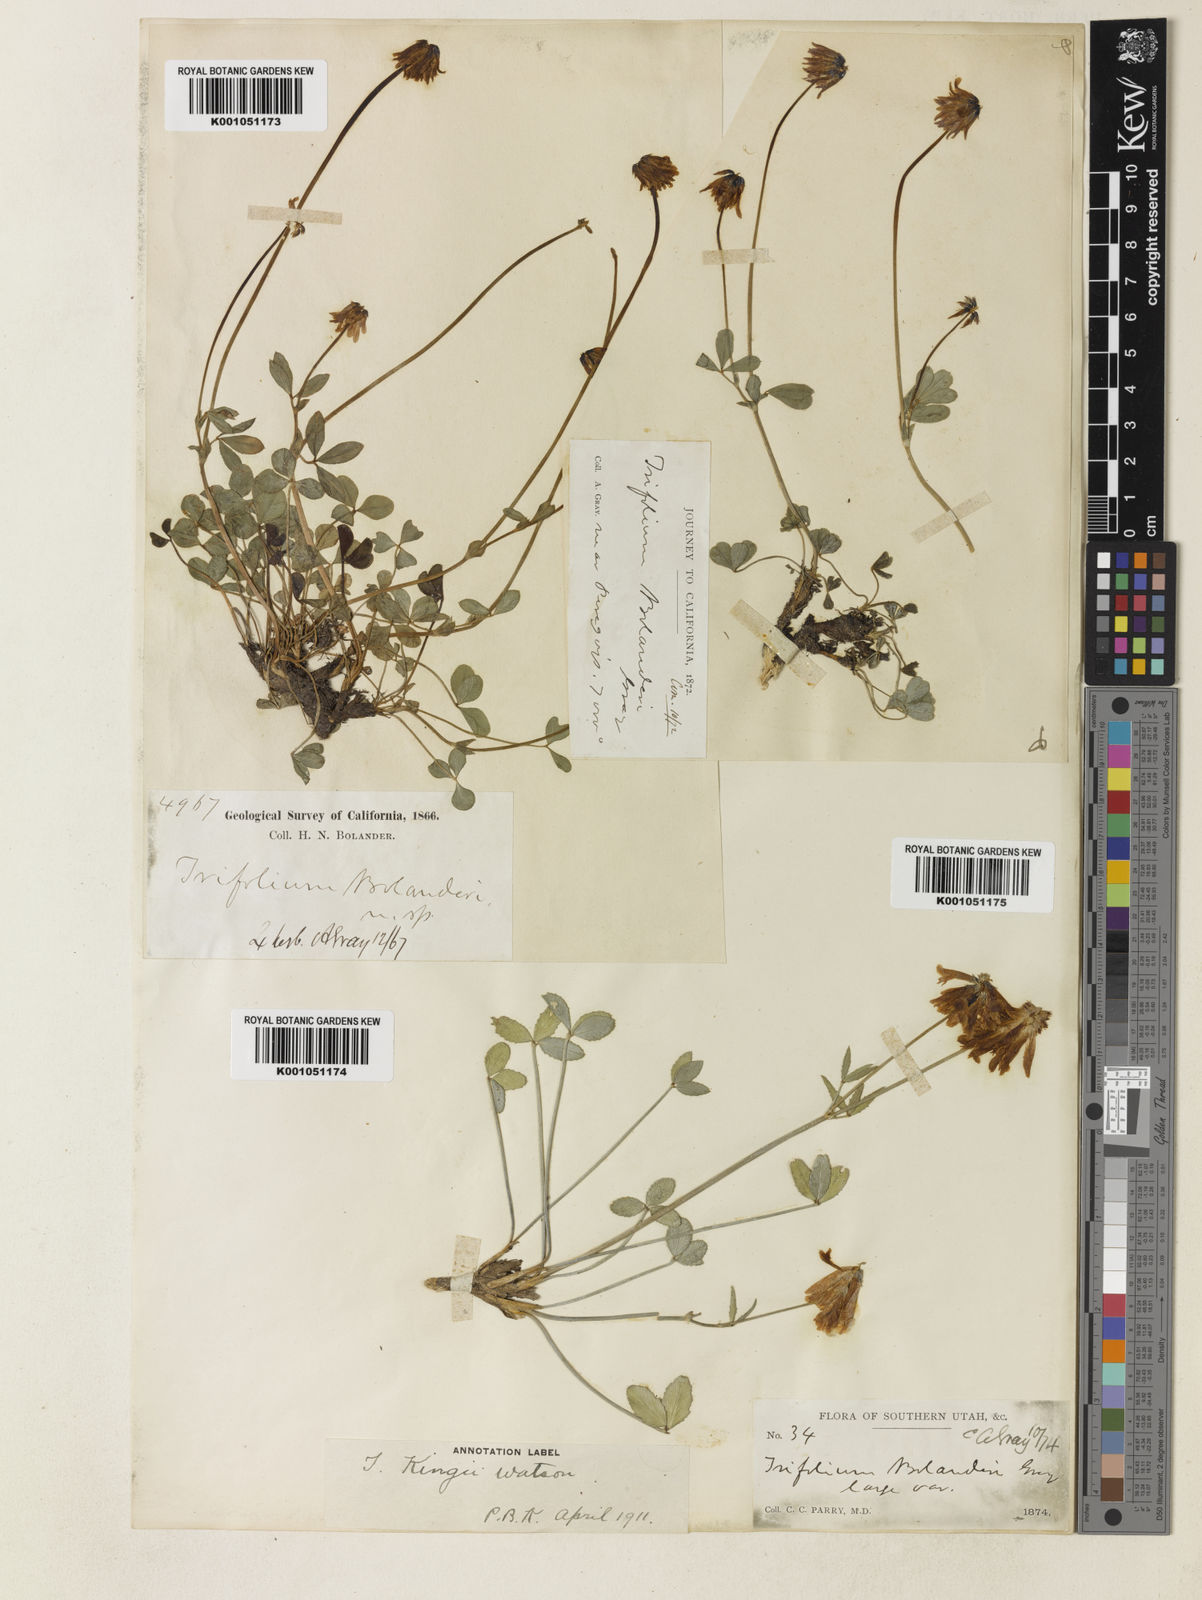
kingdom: Plantae
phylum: Tracheophyta
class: Magnoliopsida
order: Fabales
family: Fabaceae
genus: Trifolium
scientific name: Trifolium bolanderi
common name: Bolander's clover
